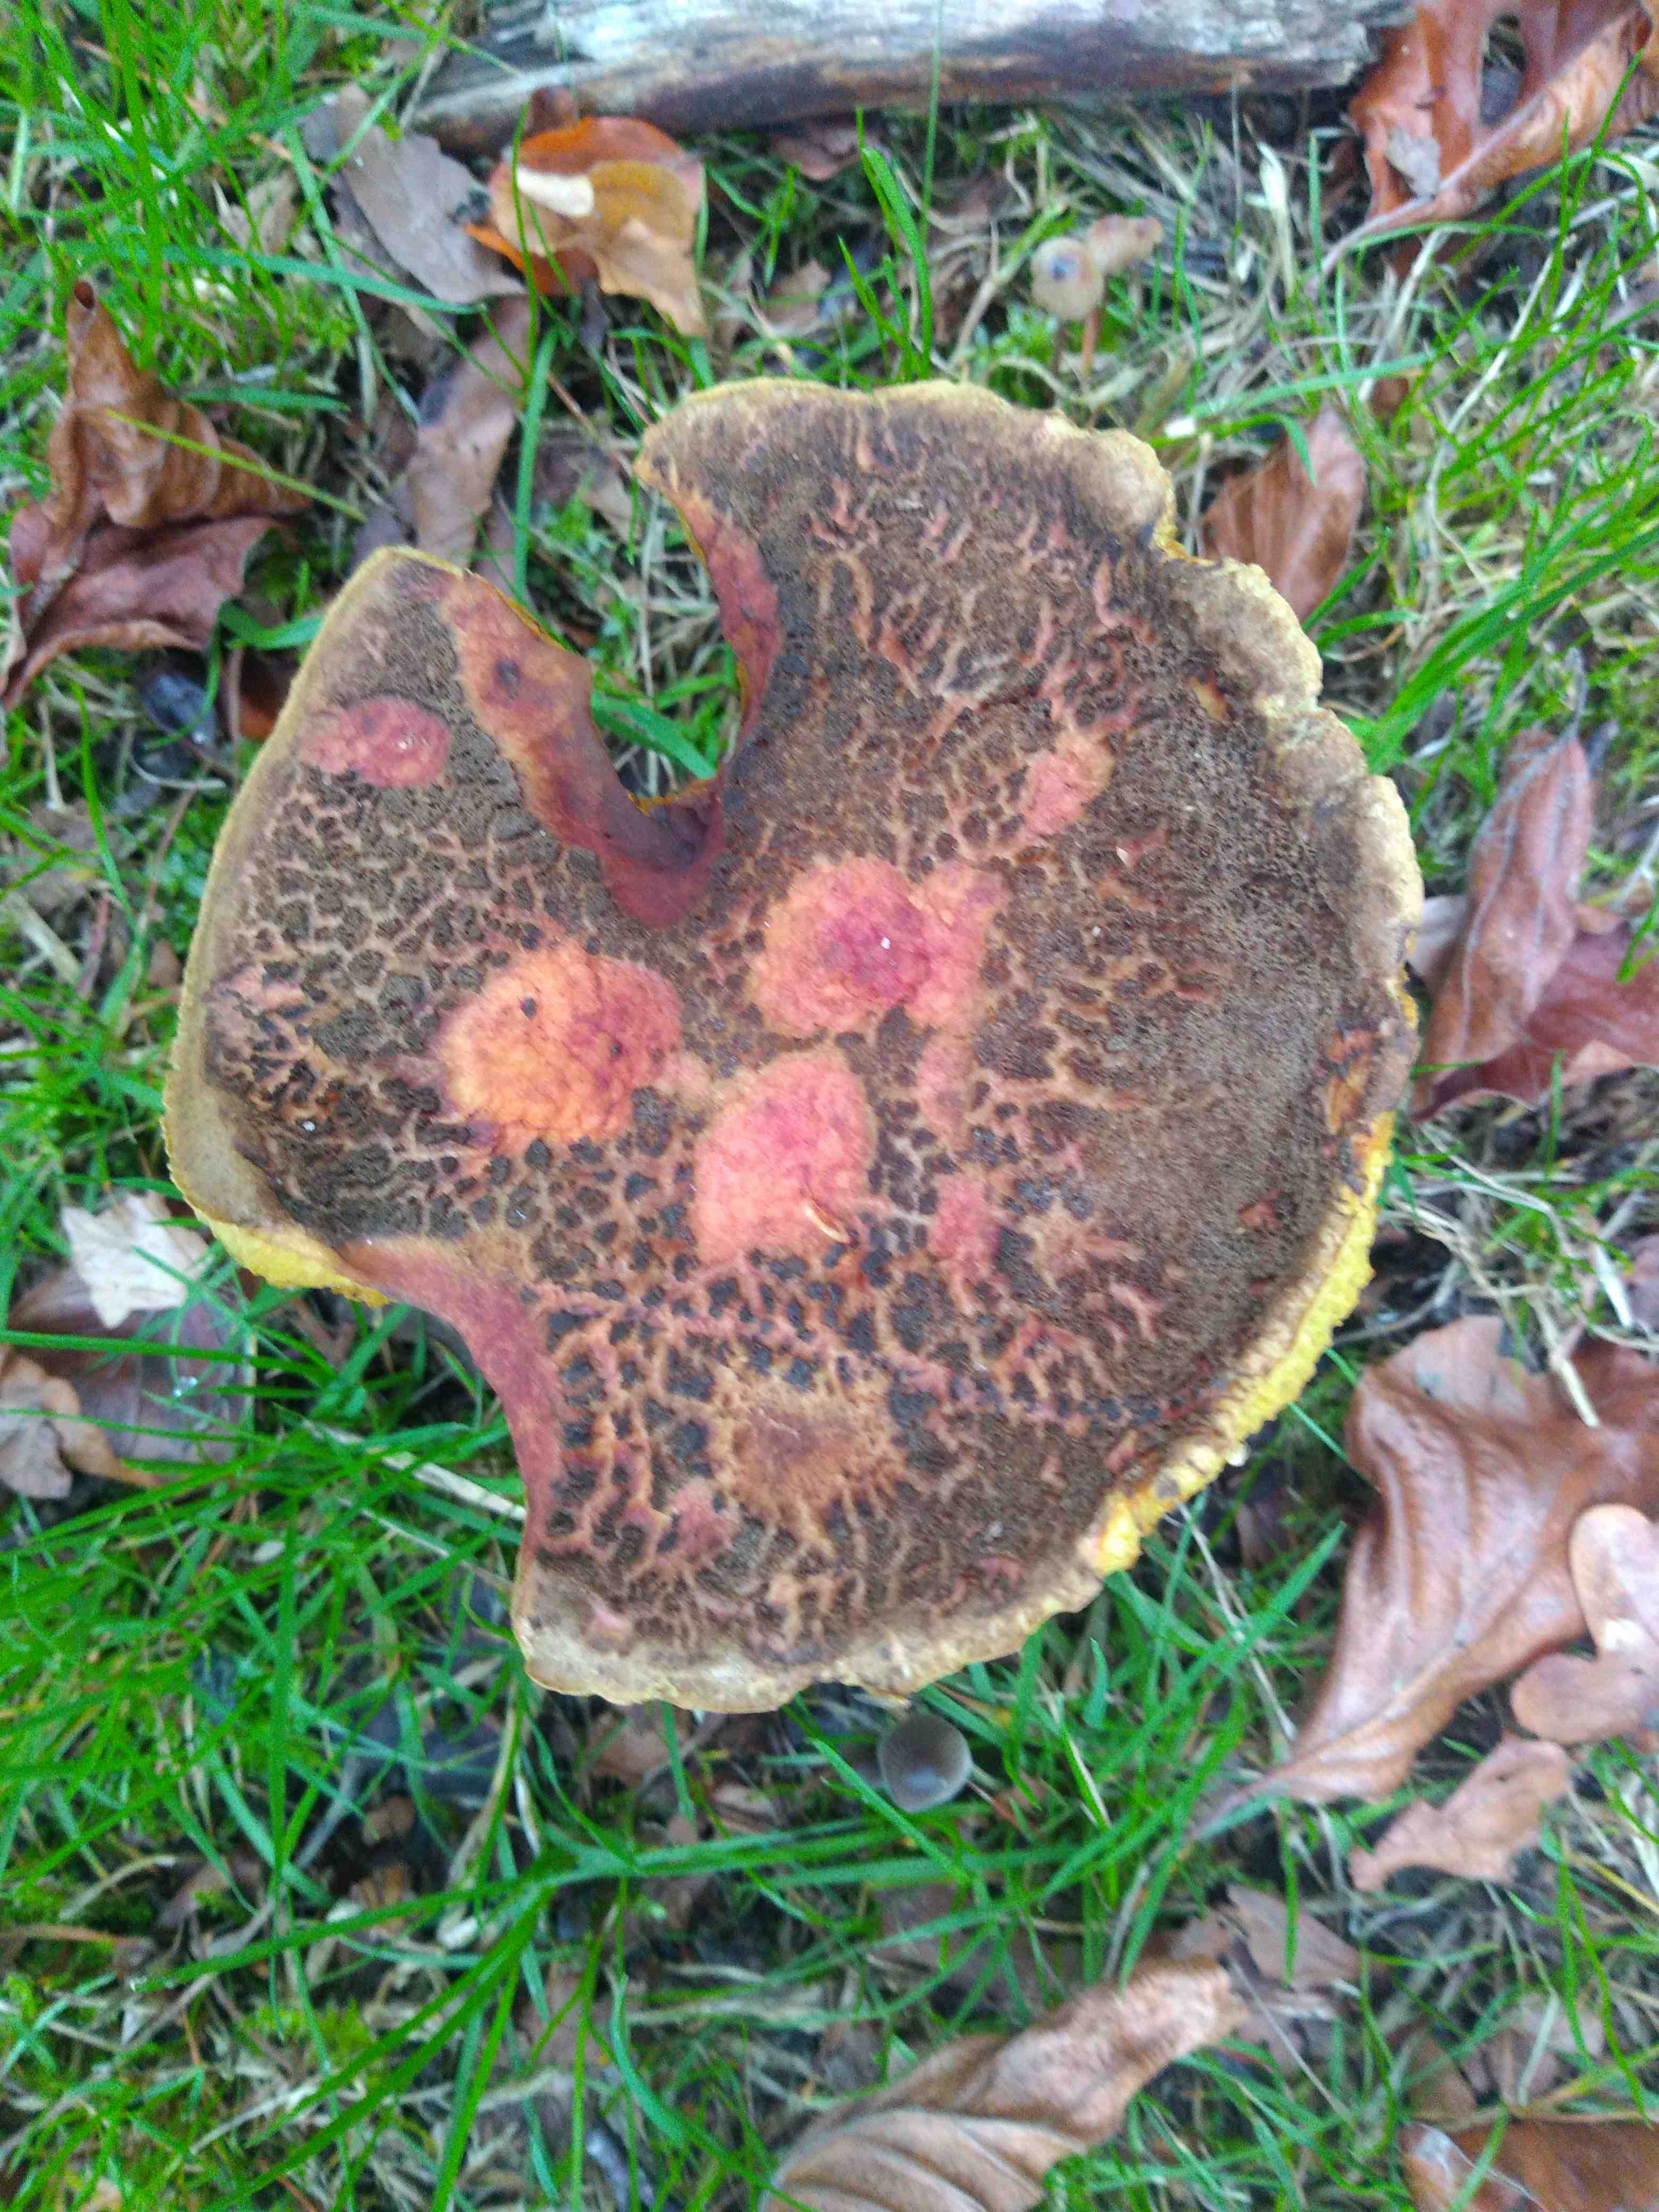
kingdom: Fungi
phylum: Basidiomycota
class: Agaricomycetes
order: Boletales
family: Boletaceae
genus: Xerocomellus
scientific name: Xerocomellus
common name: dværgrørhat
